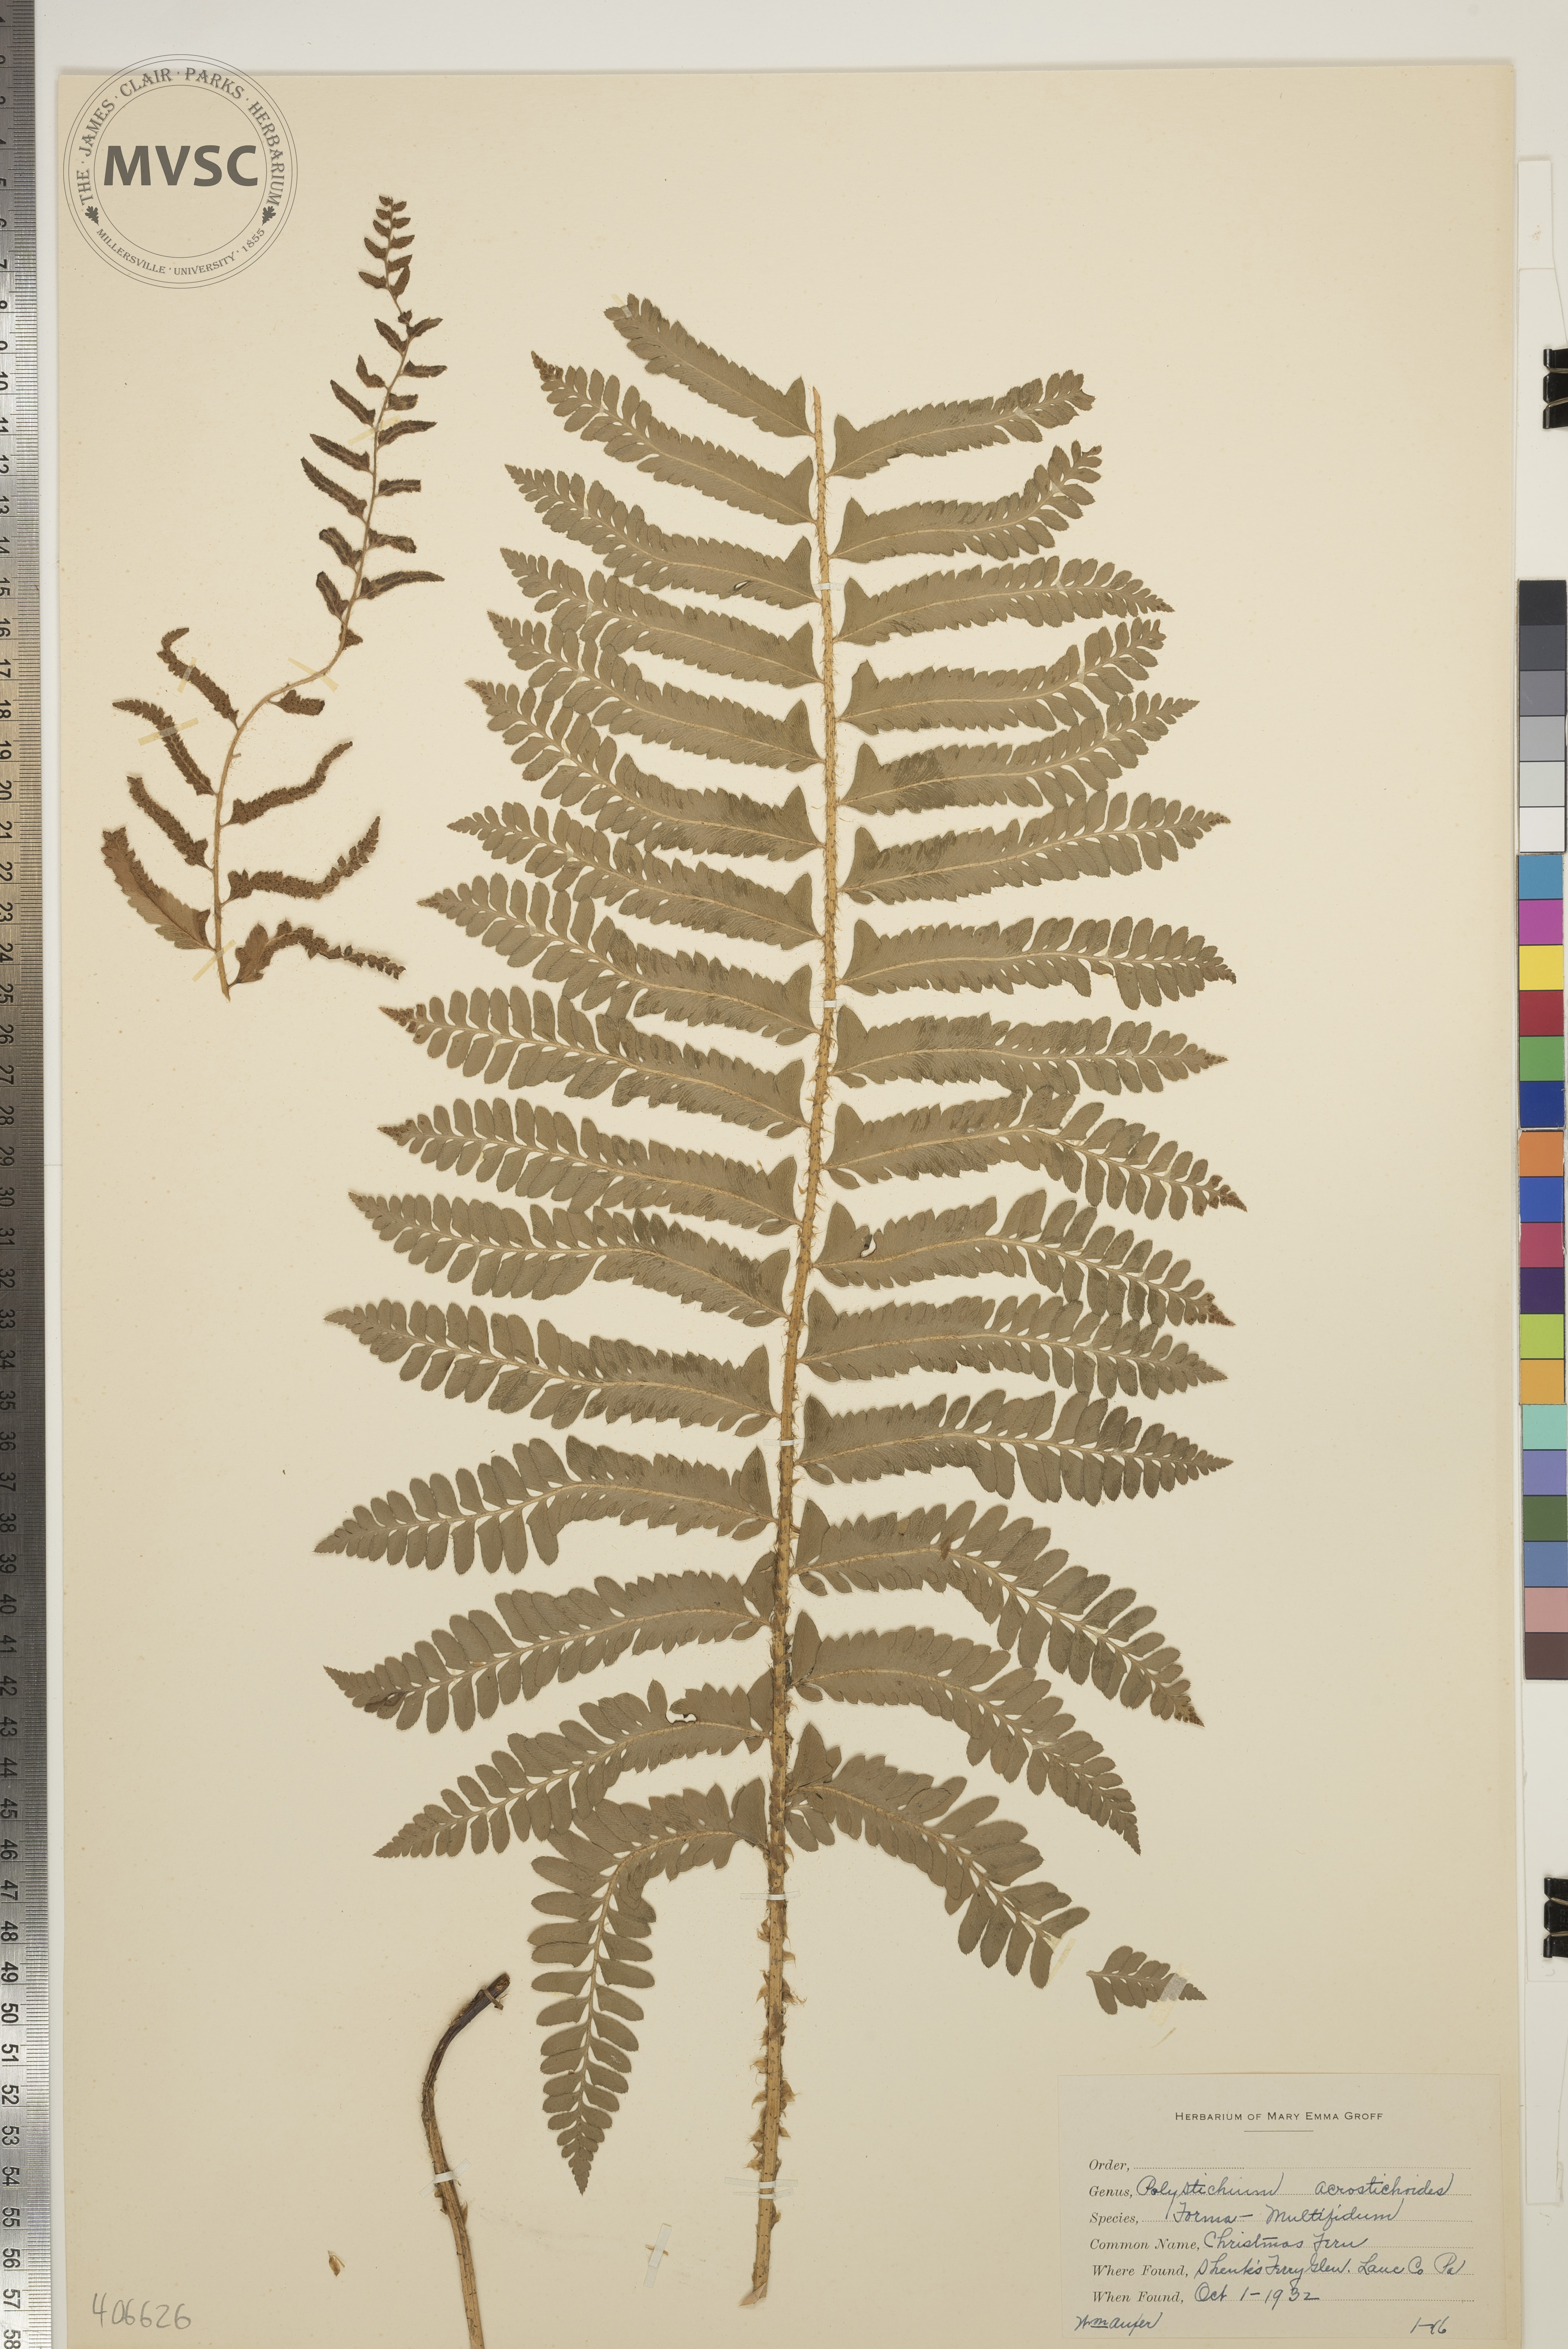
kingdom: Plantae
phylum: Tracheophyta
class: Polypodiopsida
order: Polypodiales
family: Dryopteridaceae
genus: Polystichum
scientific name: Polystichum acrostichoides
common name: Christmas Fern
